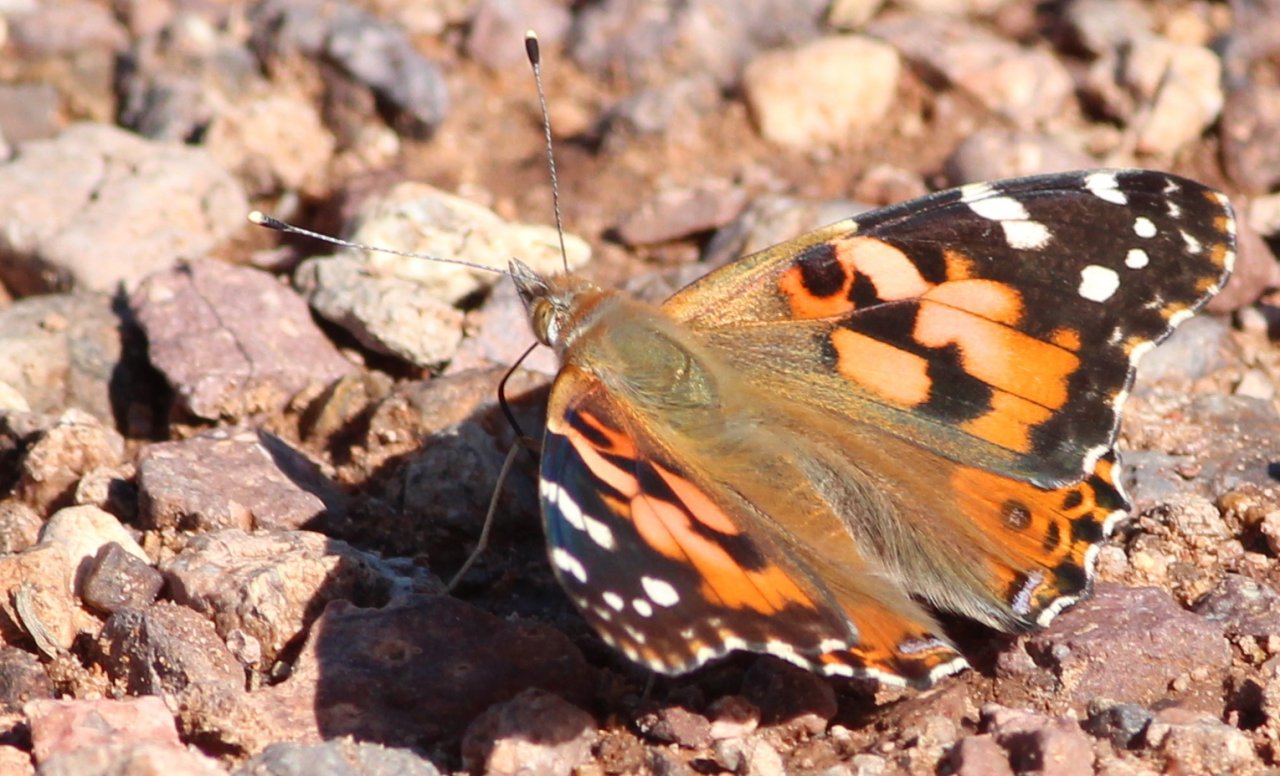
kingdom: Animalia
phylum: Arthropoda
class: Insecta
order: Lepidoptera
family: Nymphalidae
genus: Vanessa
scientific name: Vanessa cardui
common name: Painted Lady
